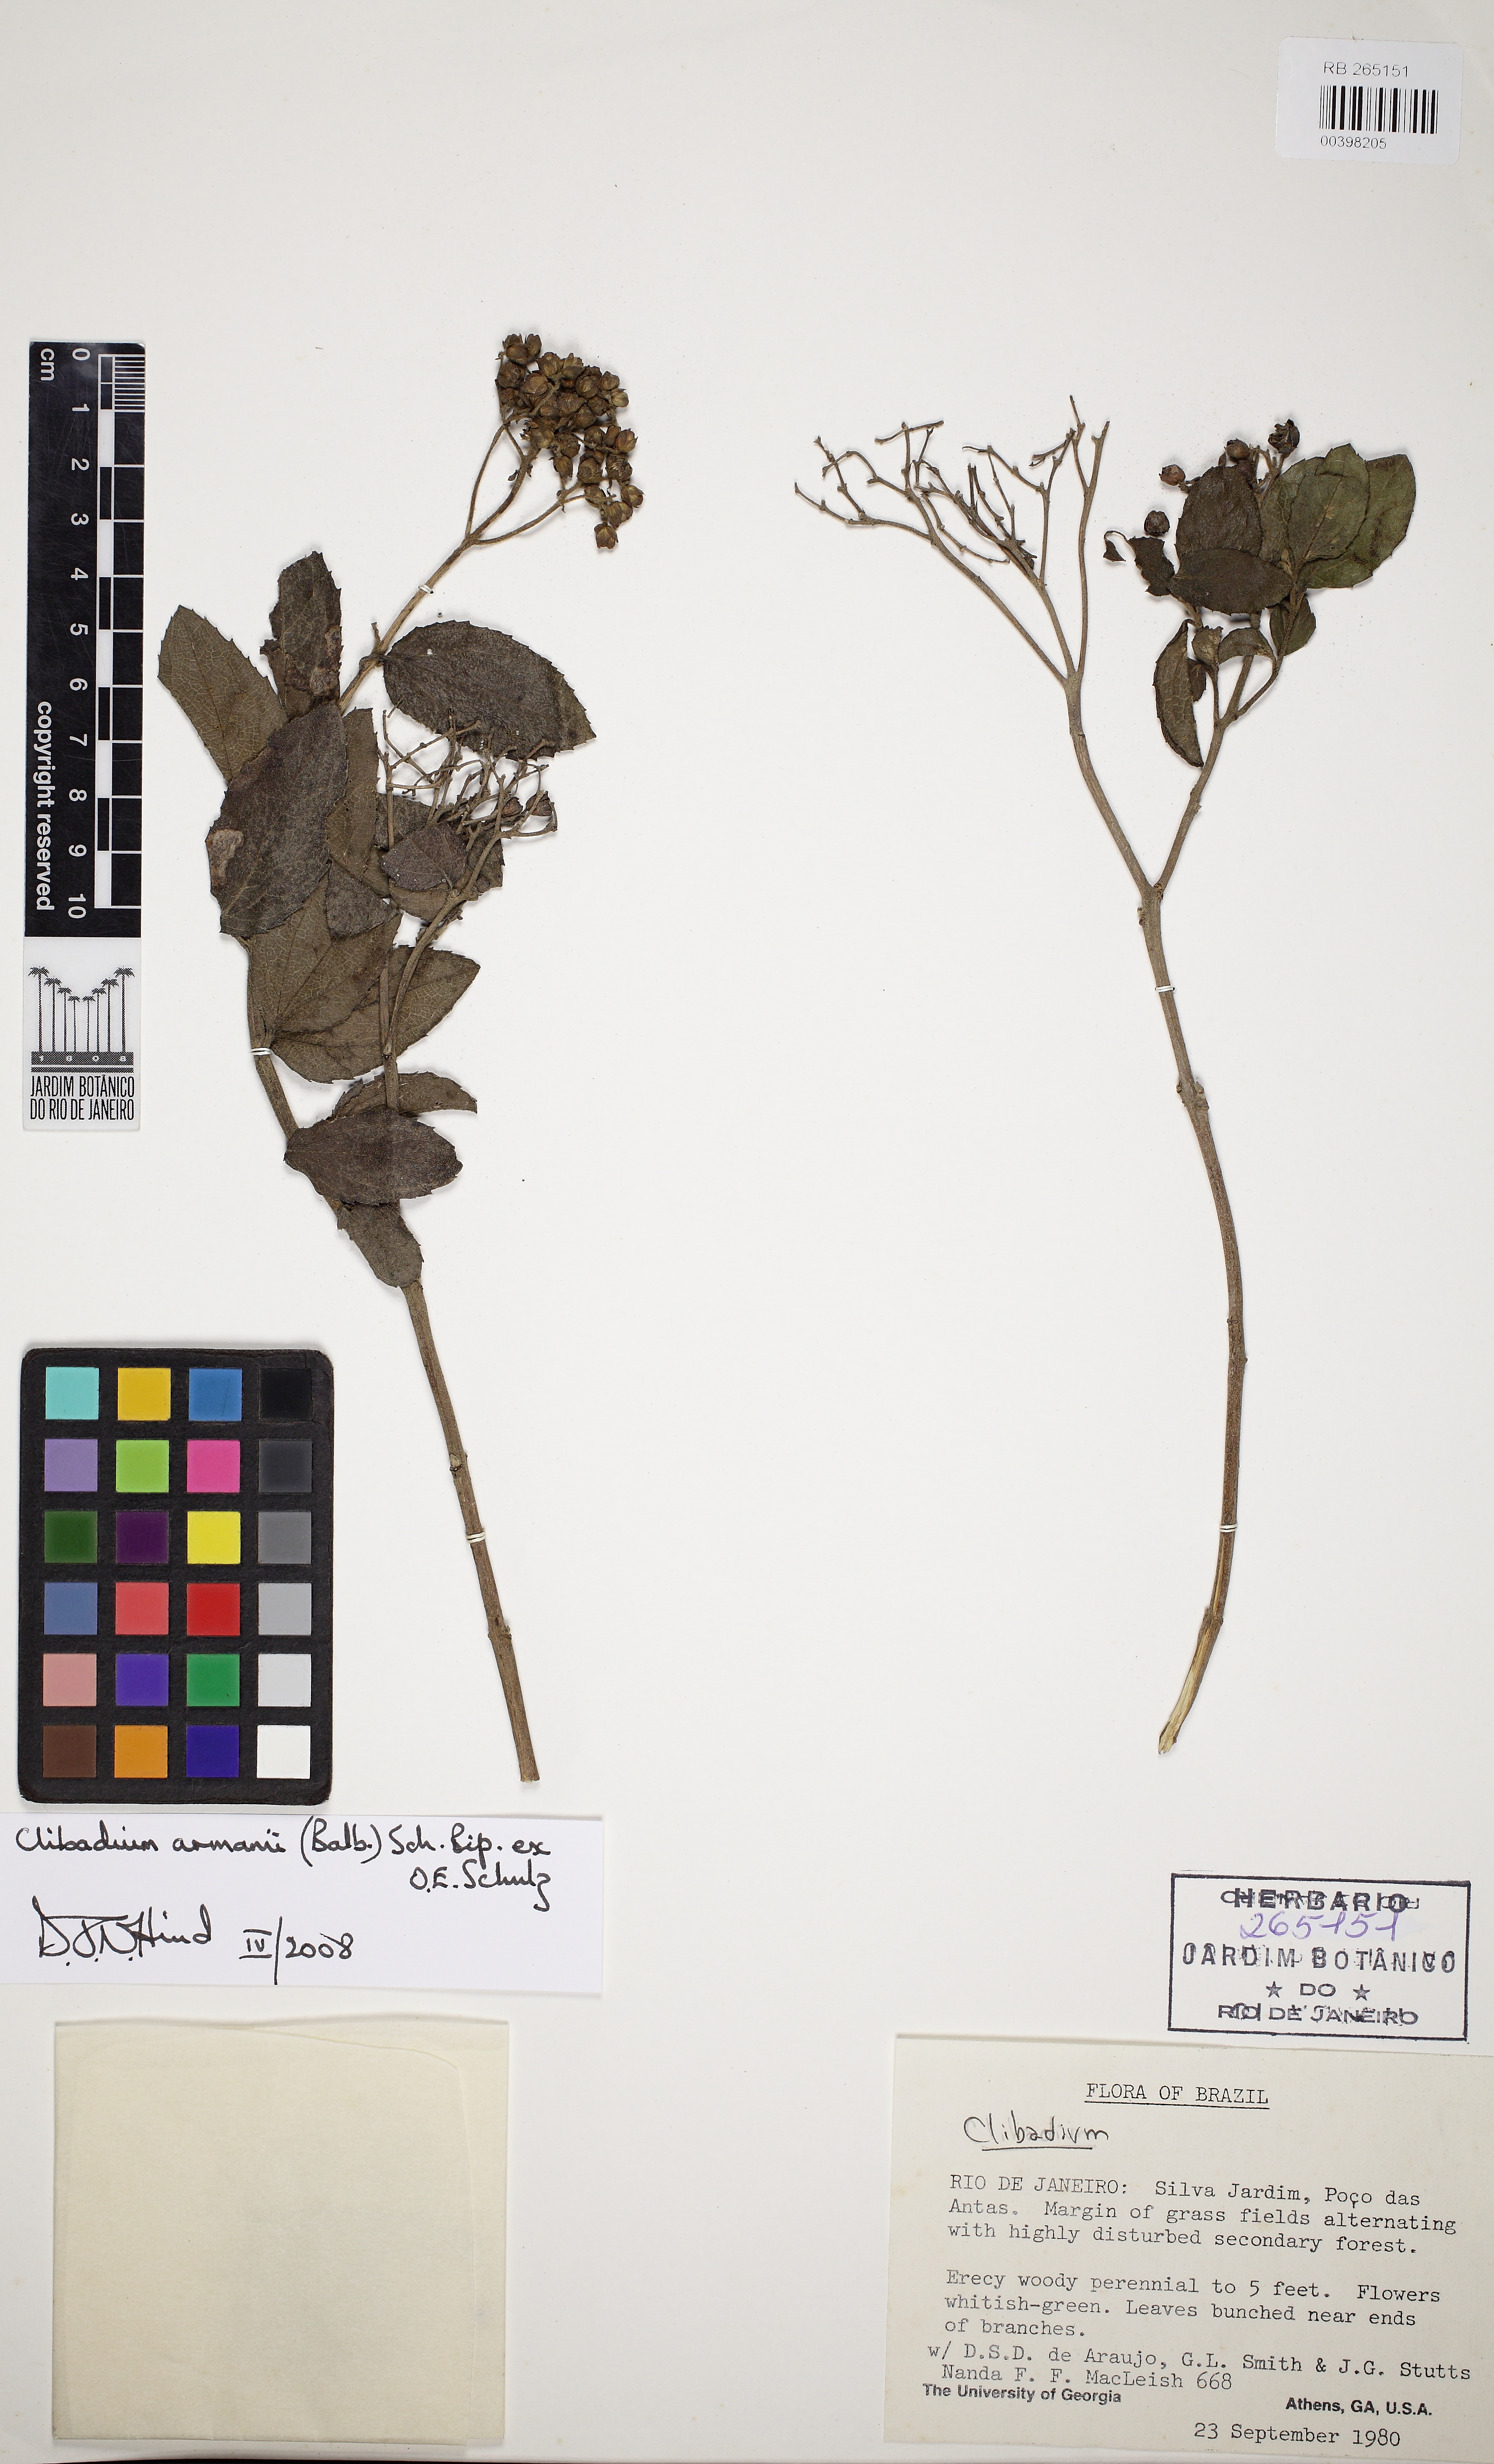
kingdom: Plantae
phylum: Tracheophyta
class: Magnoliopsida
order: Asterales
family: Asteraceae
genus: Clibadium
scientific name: Clibadium armanii
